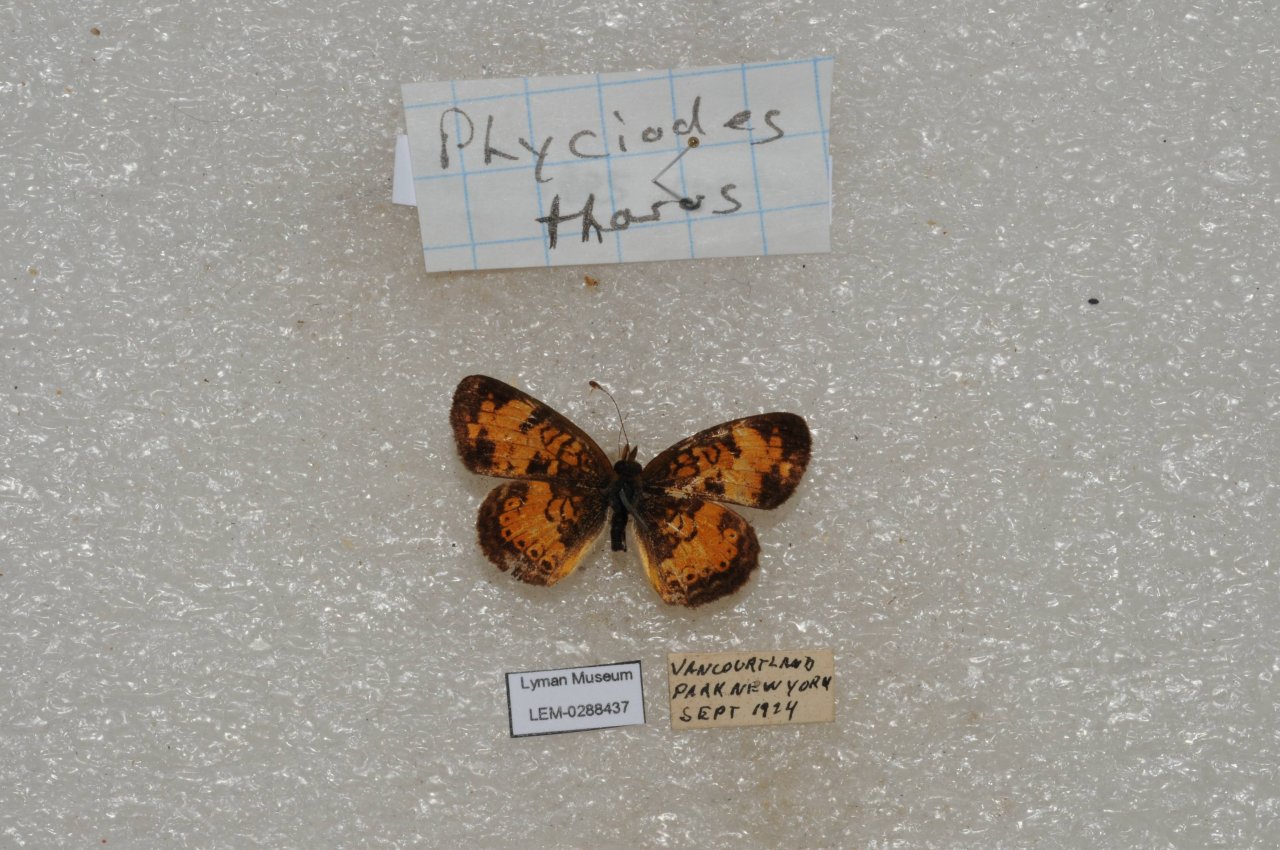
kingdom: Animalia
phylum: Arthropoda
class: Insecta
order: Lepidoptera
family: Nymphalidae
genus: Phyciodes
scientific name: Phyciodes tharos
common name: Pearl Crescent
